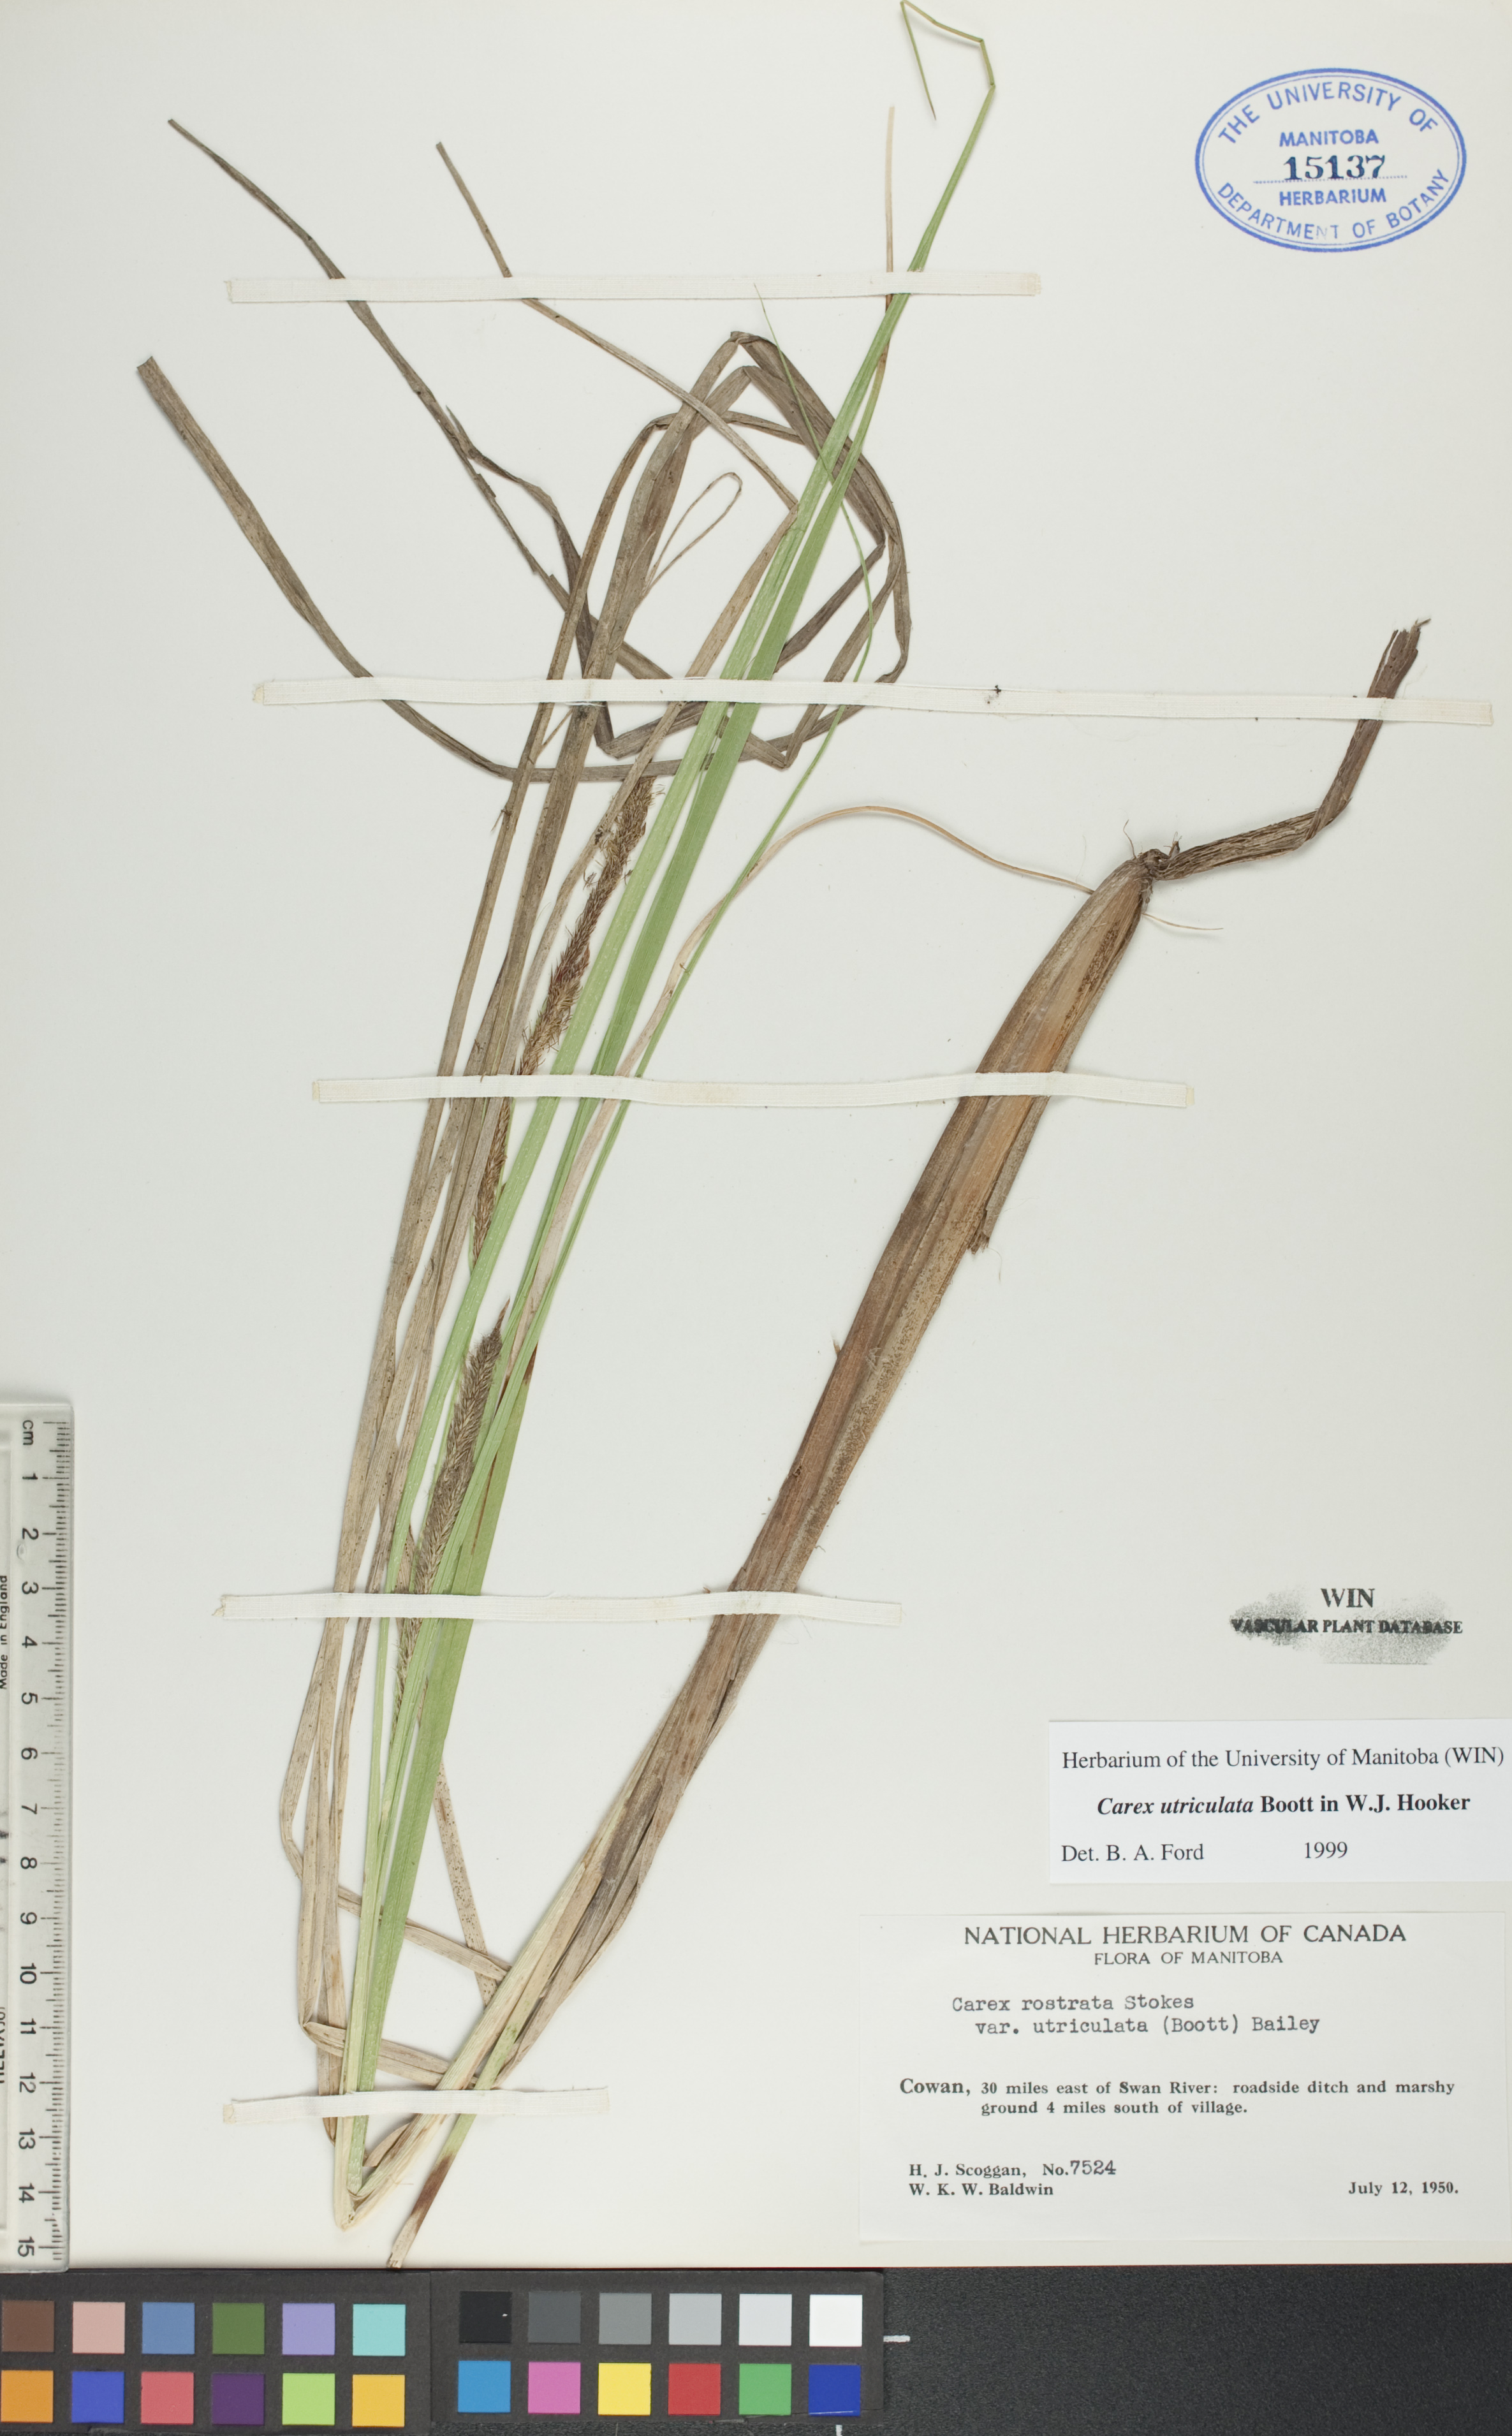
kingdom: Plantae
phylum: Tracheophyta
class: Liliopsida
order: Poales
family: Cyperaceae
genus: Carex
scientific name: Carex utriculata
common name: Beaked sedge
